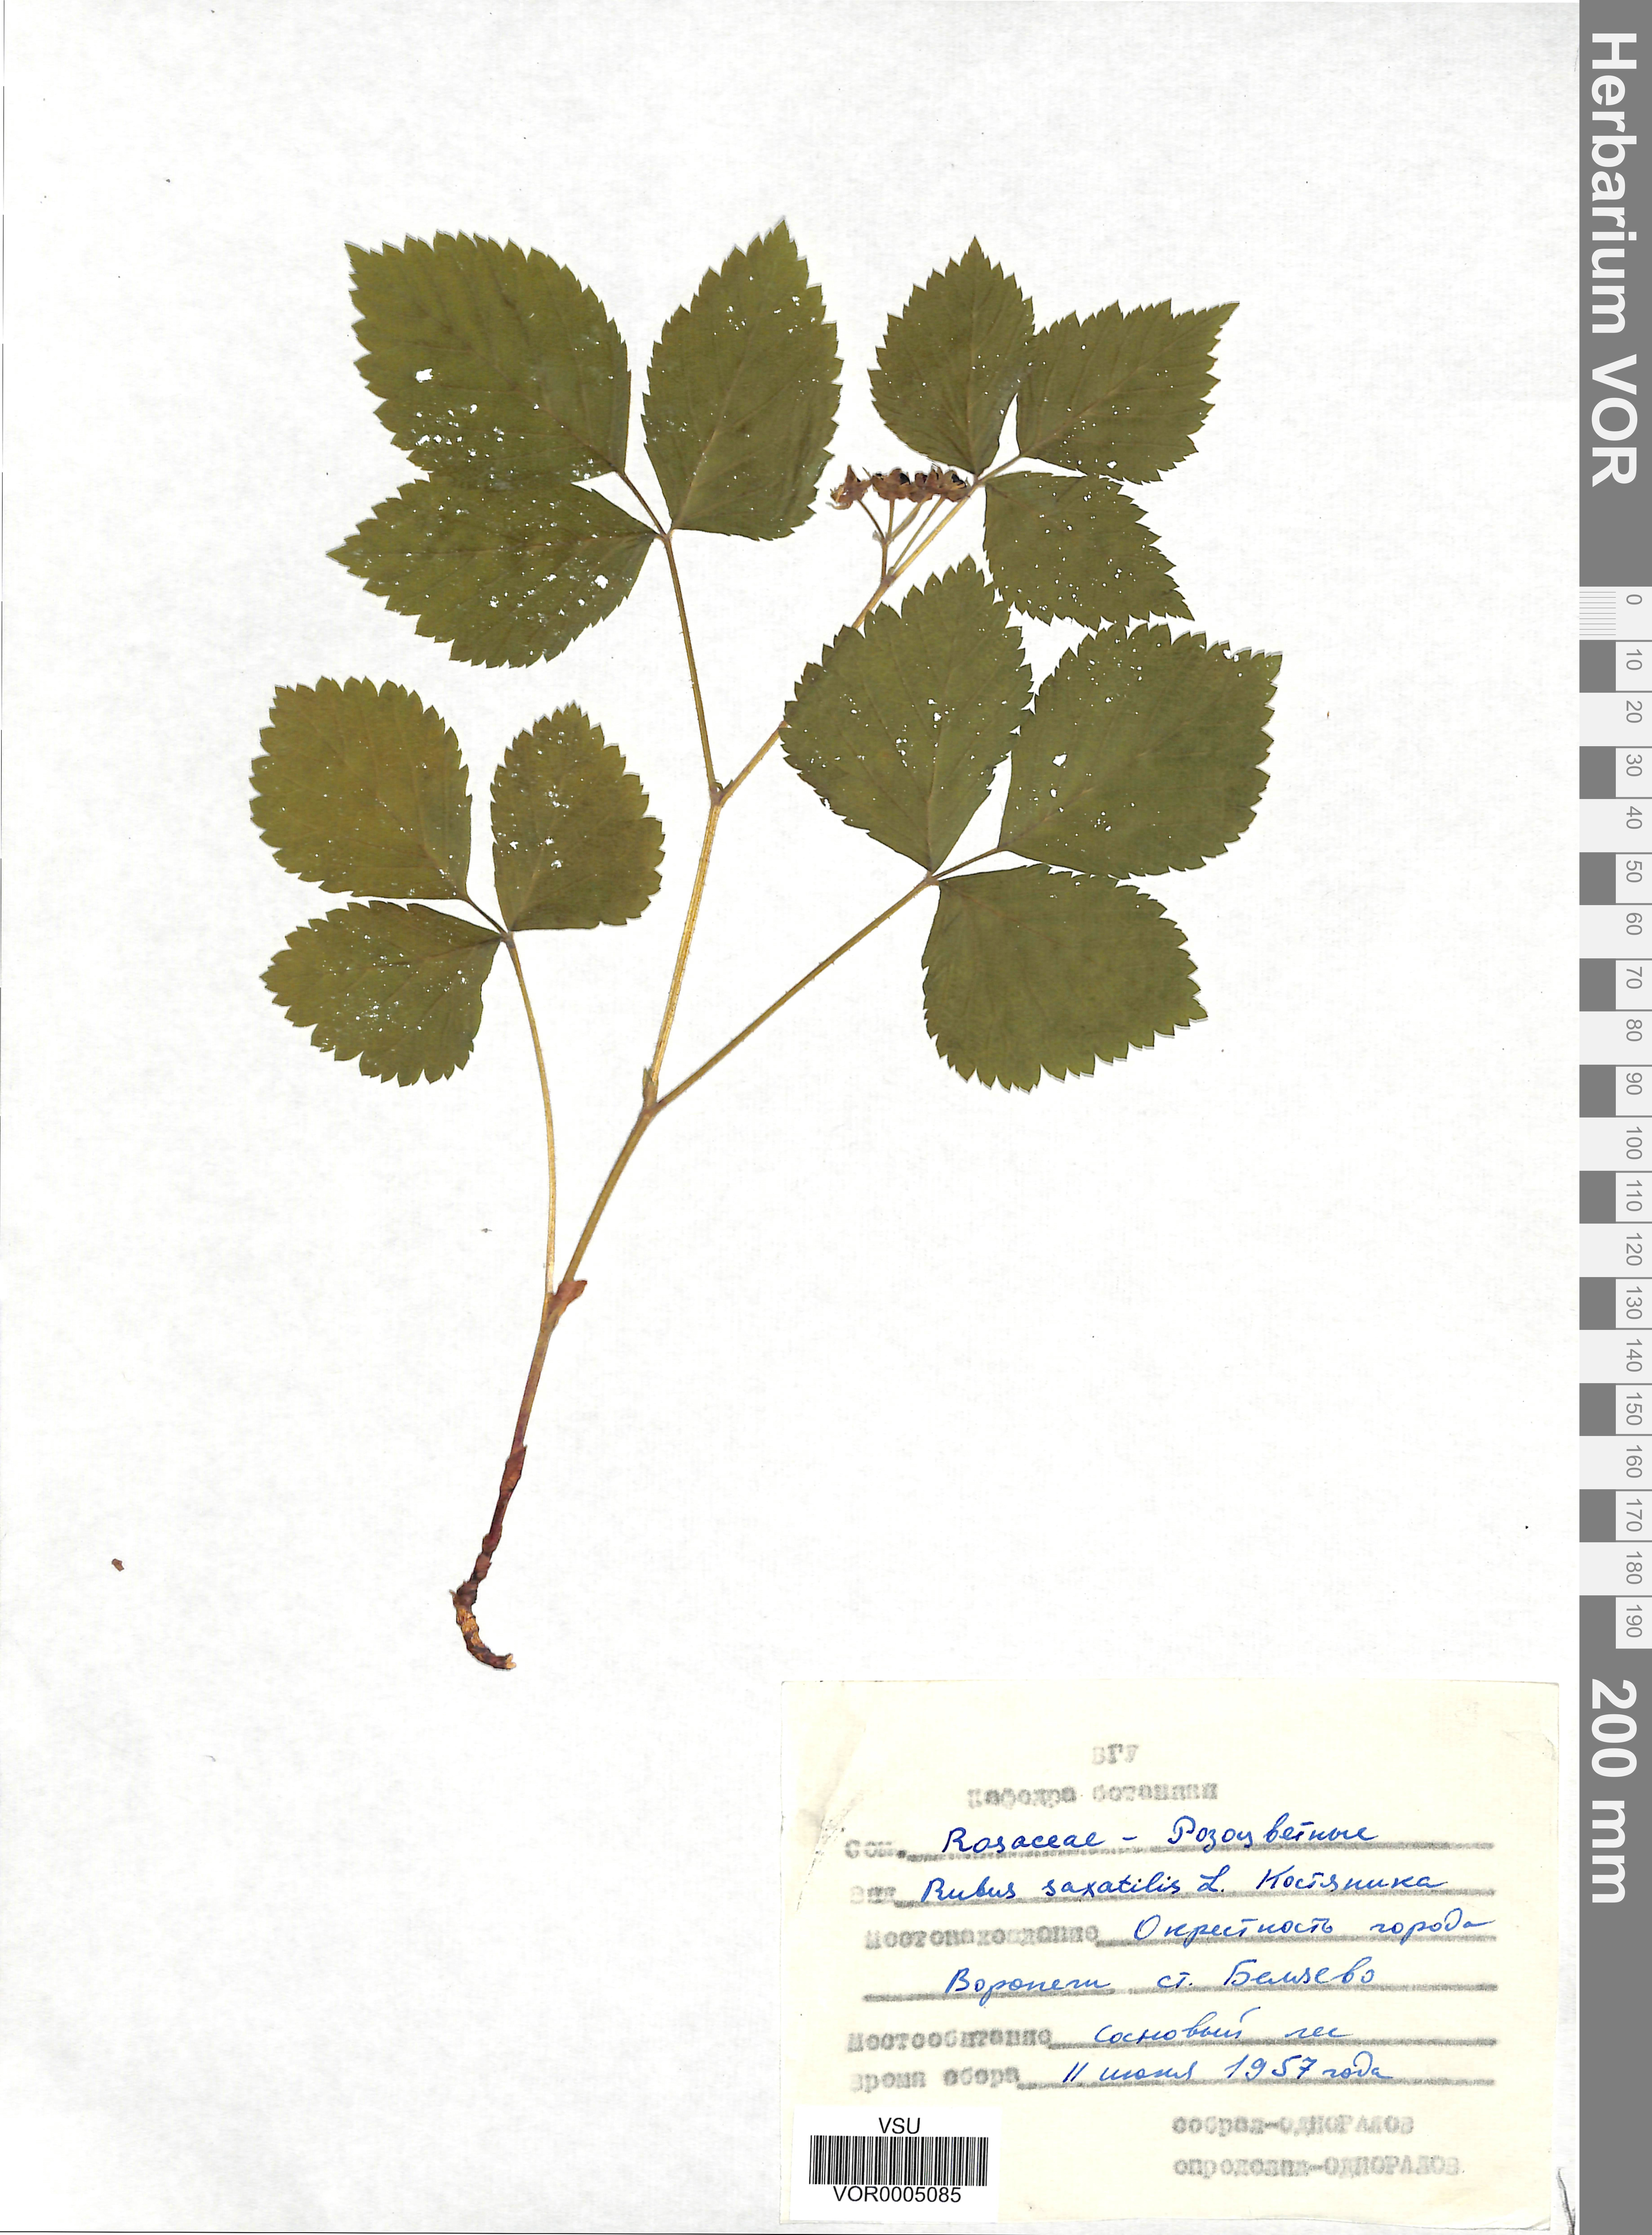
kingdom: Plantae
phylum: Tracheophyta
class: Magnoliopsida
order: Rosales
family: Rosaceae
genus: Rubus
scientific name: Rubus saxatilis
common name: Stone bramble
